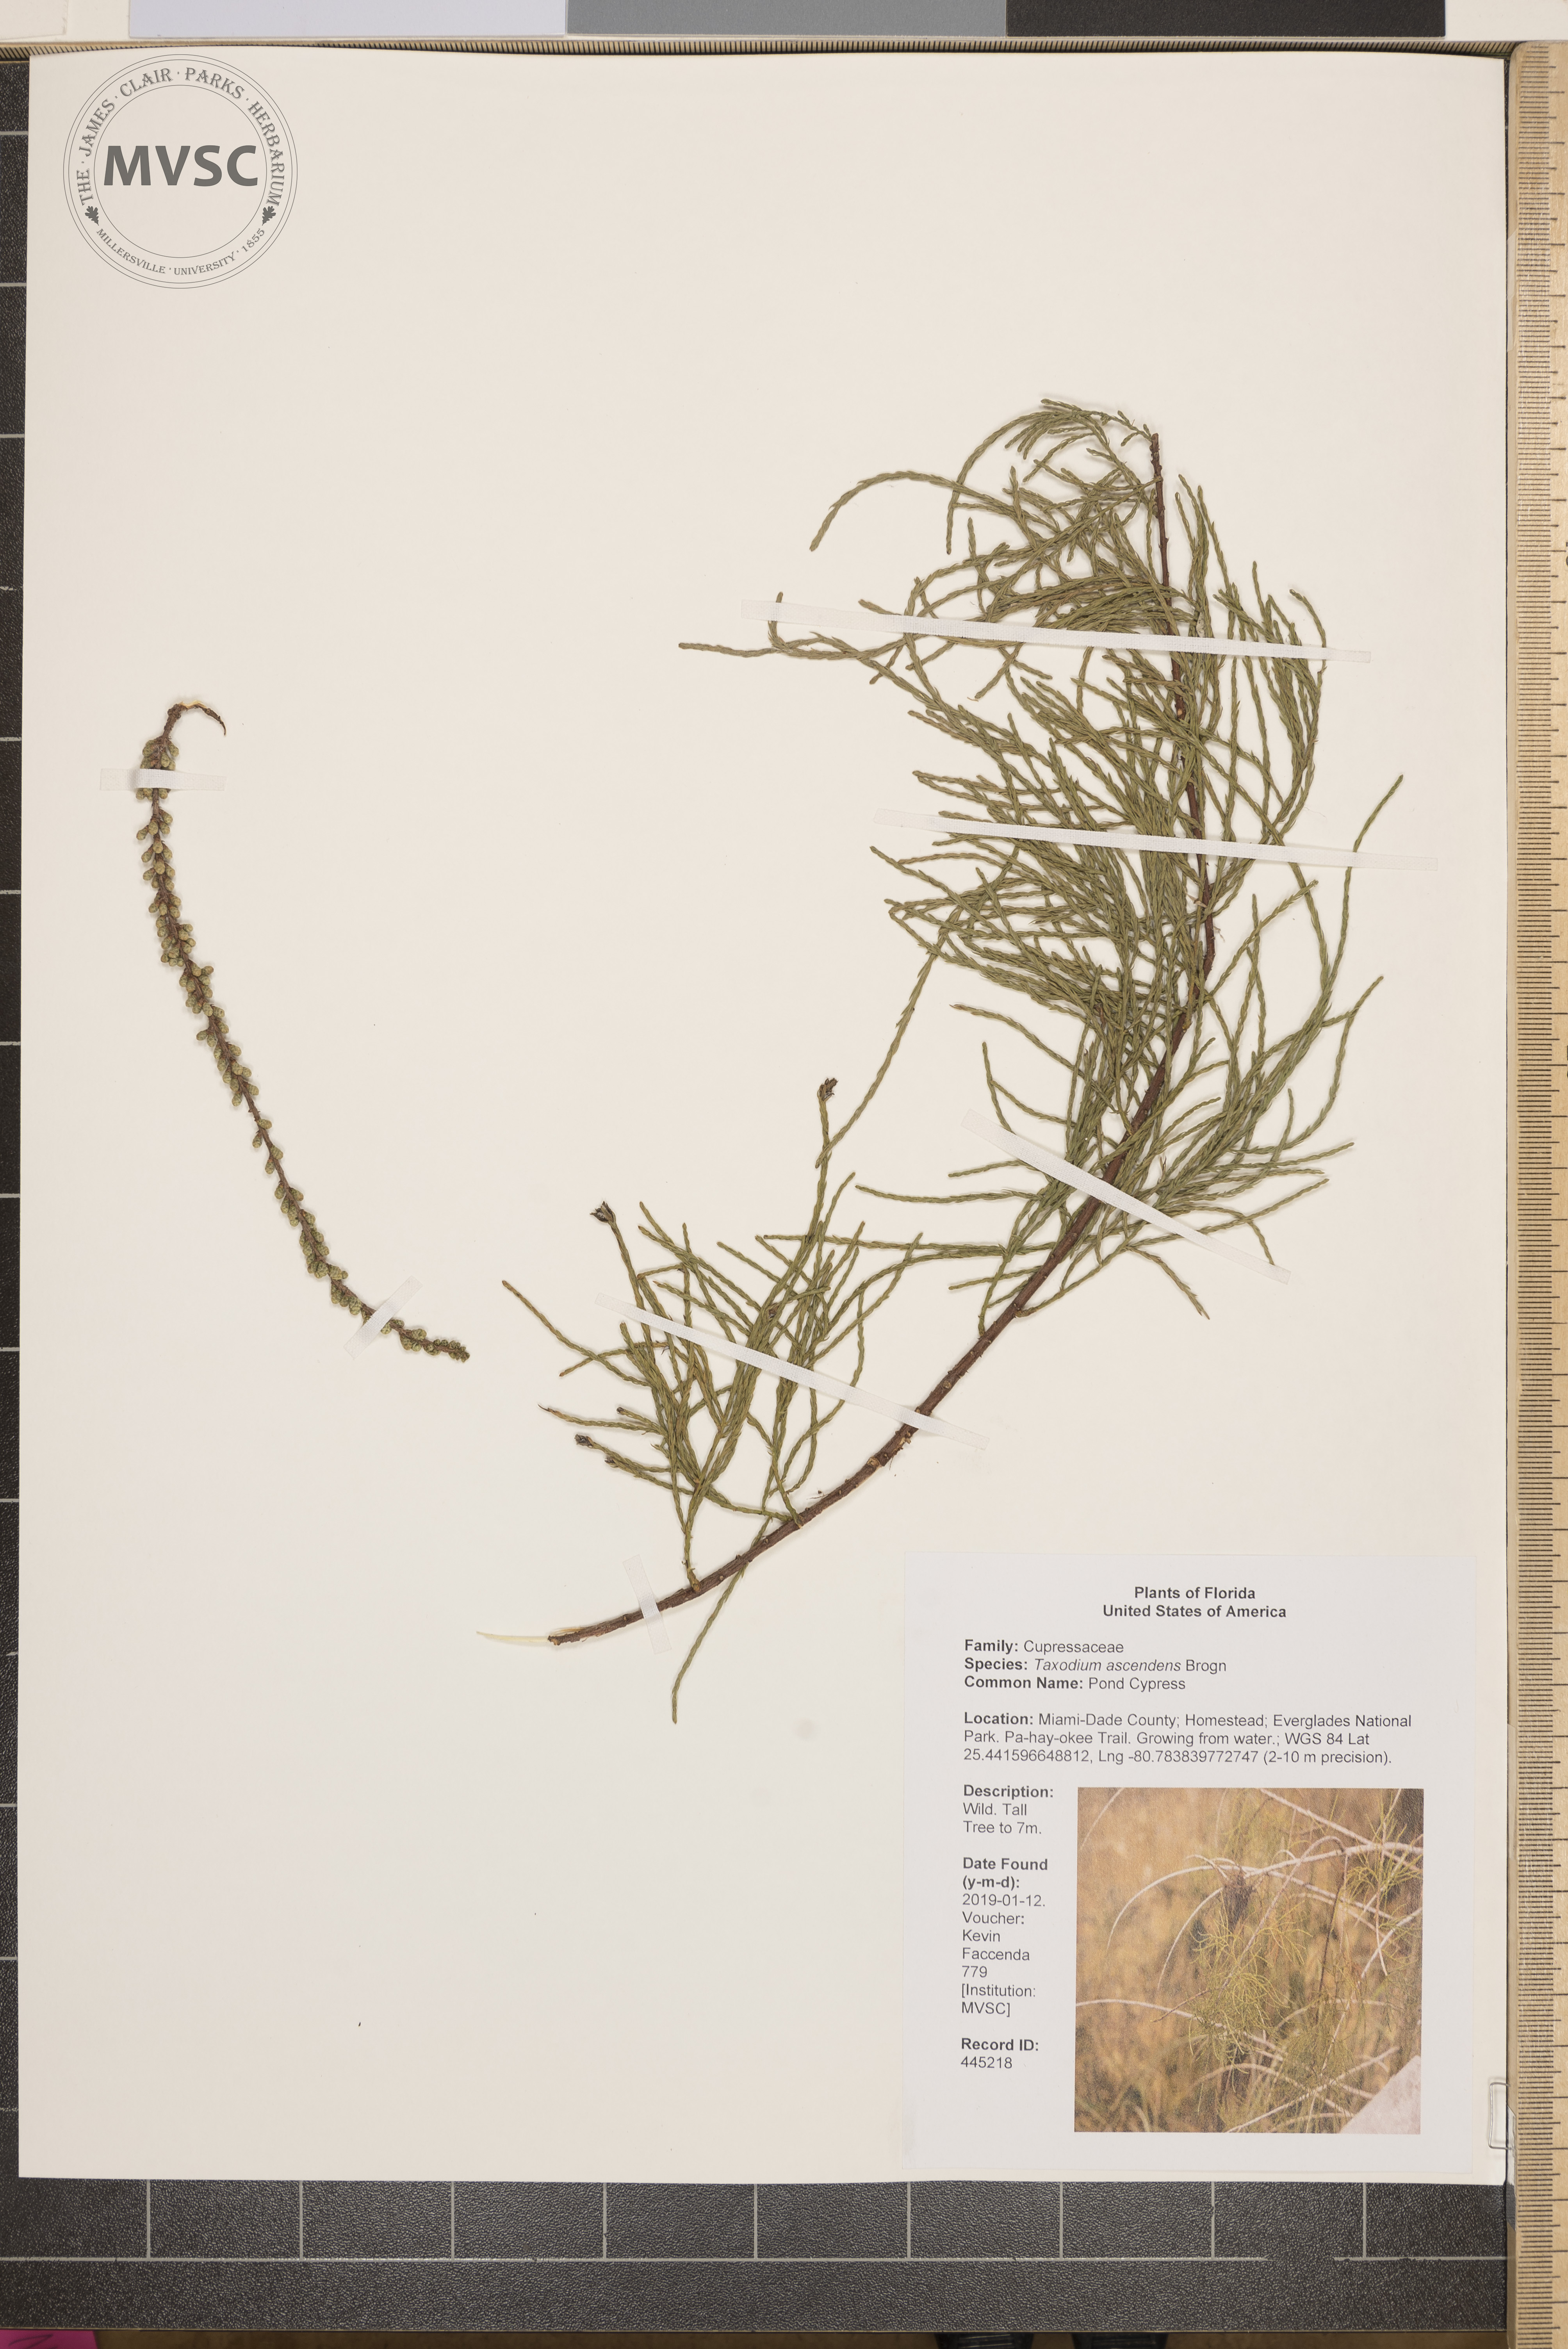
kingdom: Plantae
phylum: Tracheophyta
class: Pinopsida
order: Pinales
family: Cupressaceae
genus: Taxodium
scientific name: Taxodium distichum
